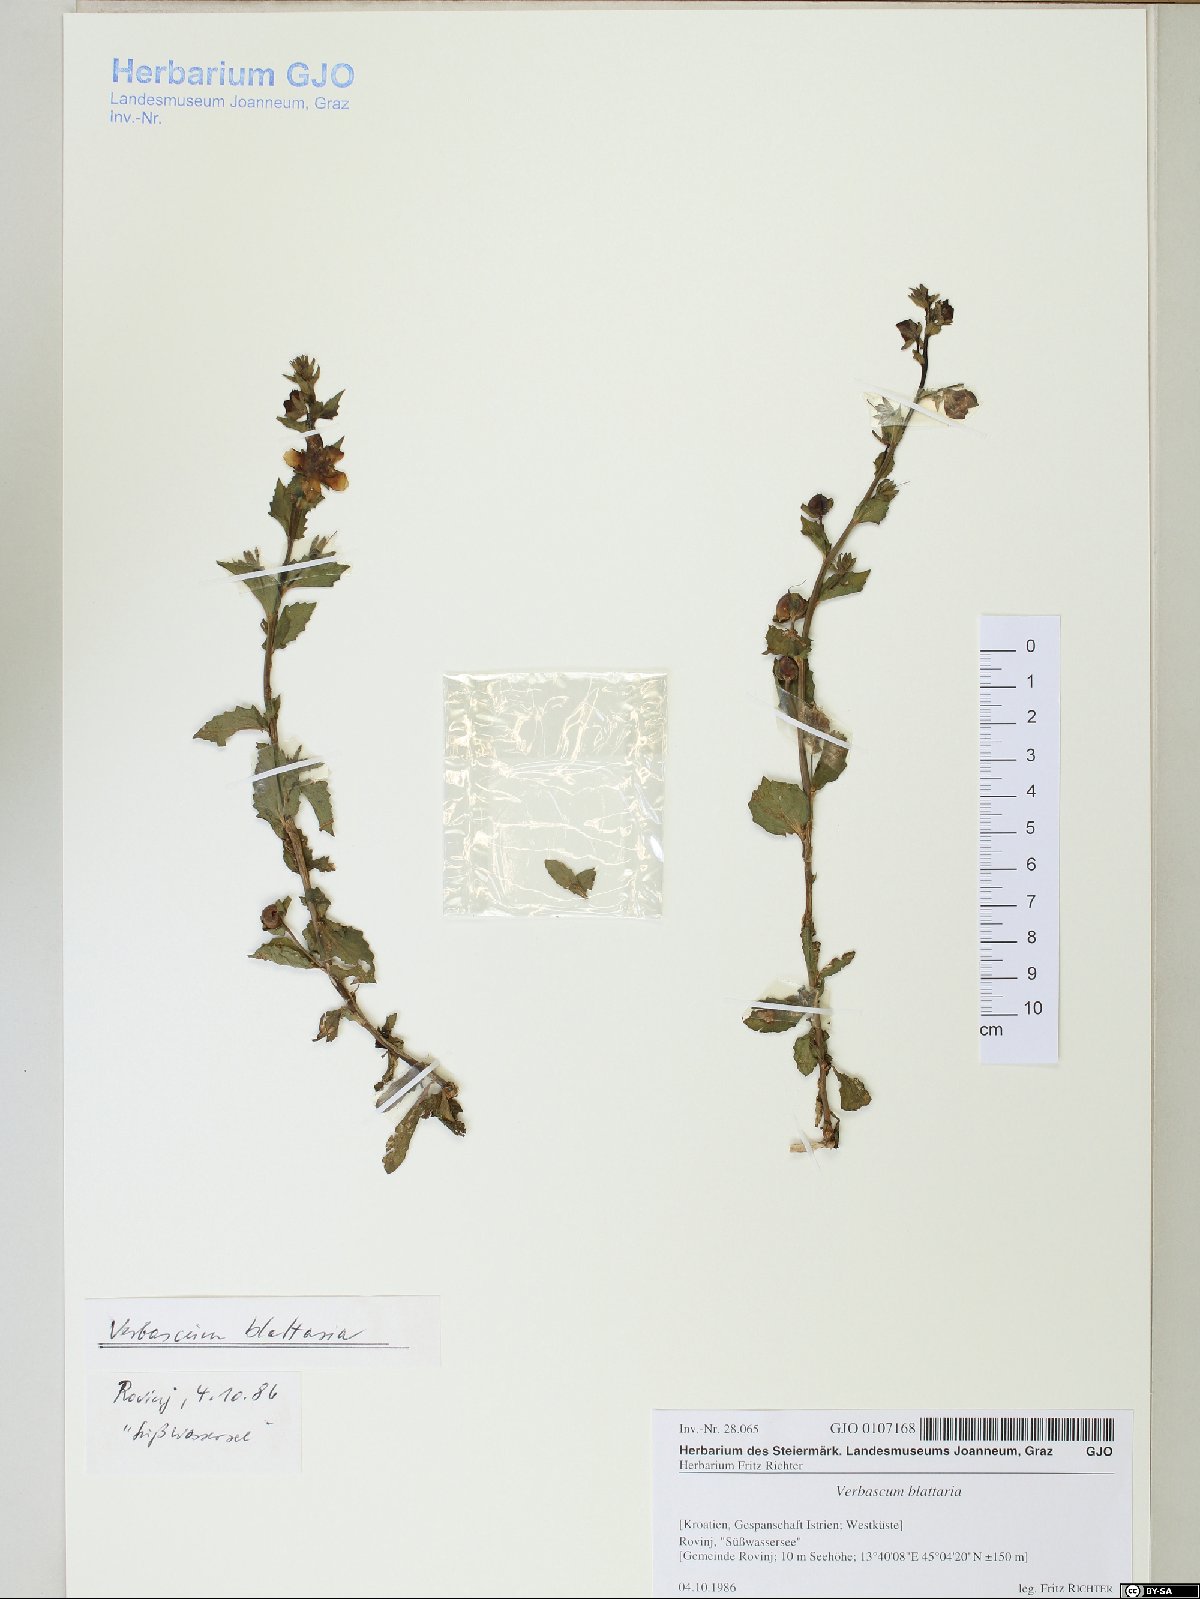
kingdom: Plantae
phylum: Tracheophyta
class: Magnoliopsida
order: Lamiales
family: Scrophulariaceae
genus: Verbascum
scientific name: Verbascum blattaria
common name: Moth mullein
